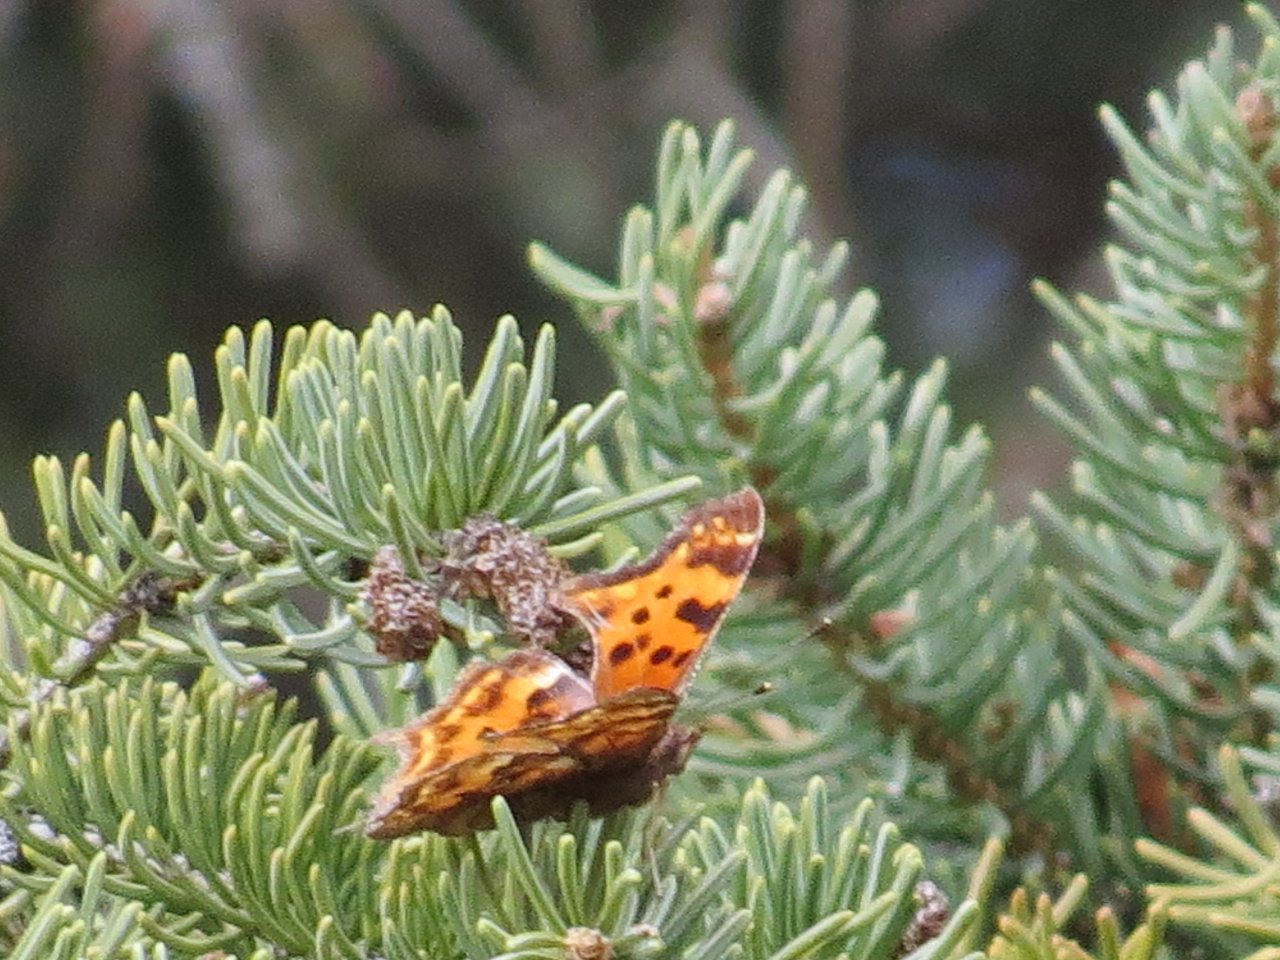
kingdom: Animalia
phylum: Arthropoda
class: Insecta
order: Lepidoptera
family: Nymphalidae
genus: Polygonia
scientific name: Polygonia satyrus
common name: Satyr Comma
